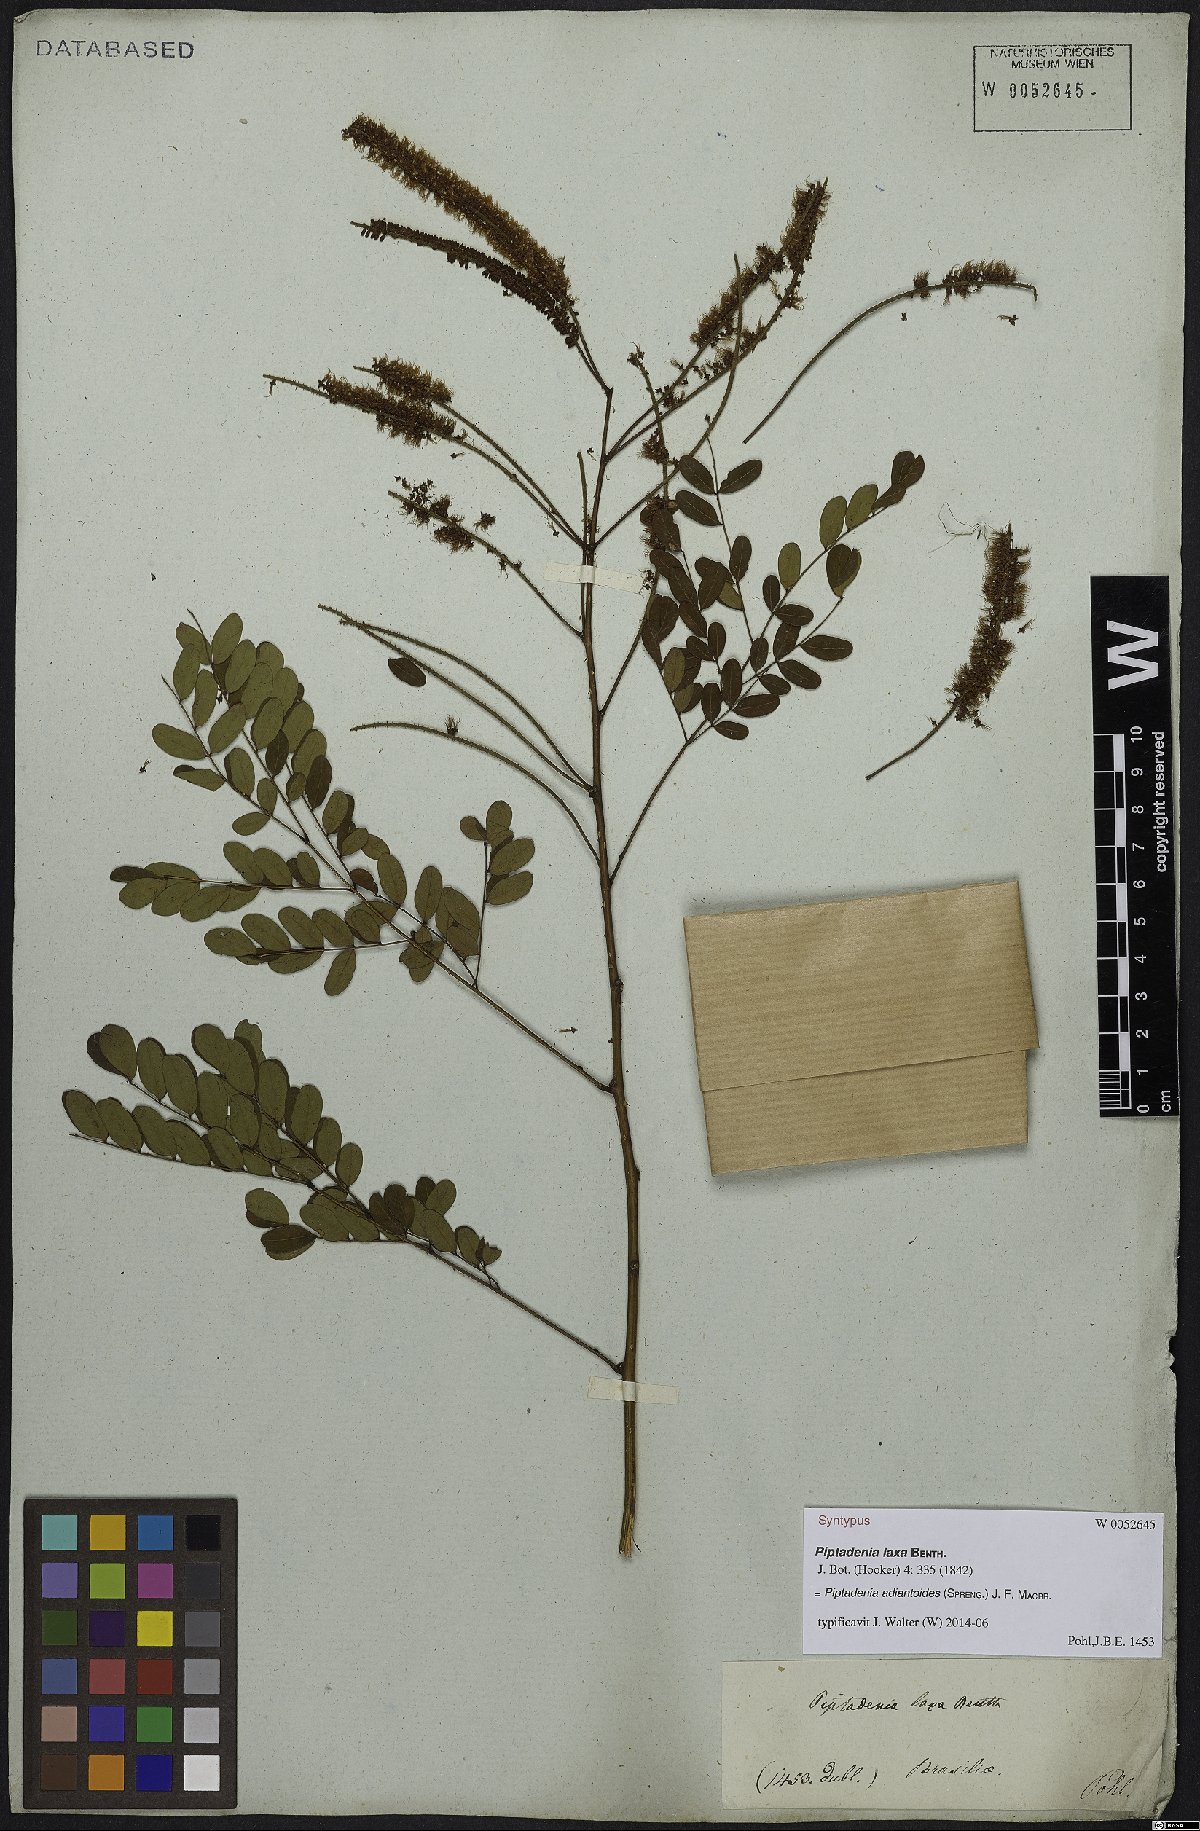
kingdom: Plantae
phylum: Tracheophyta
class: Magnoliopsida
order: Fabales
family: Fabaceae
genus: Piptadenia
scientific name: Piptadenia adiantoides
